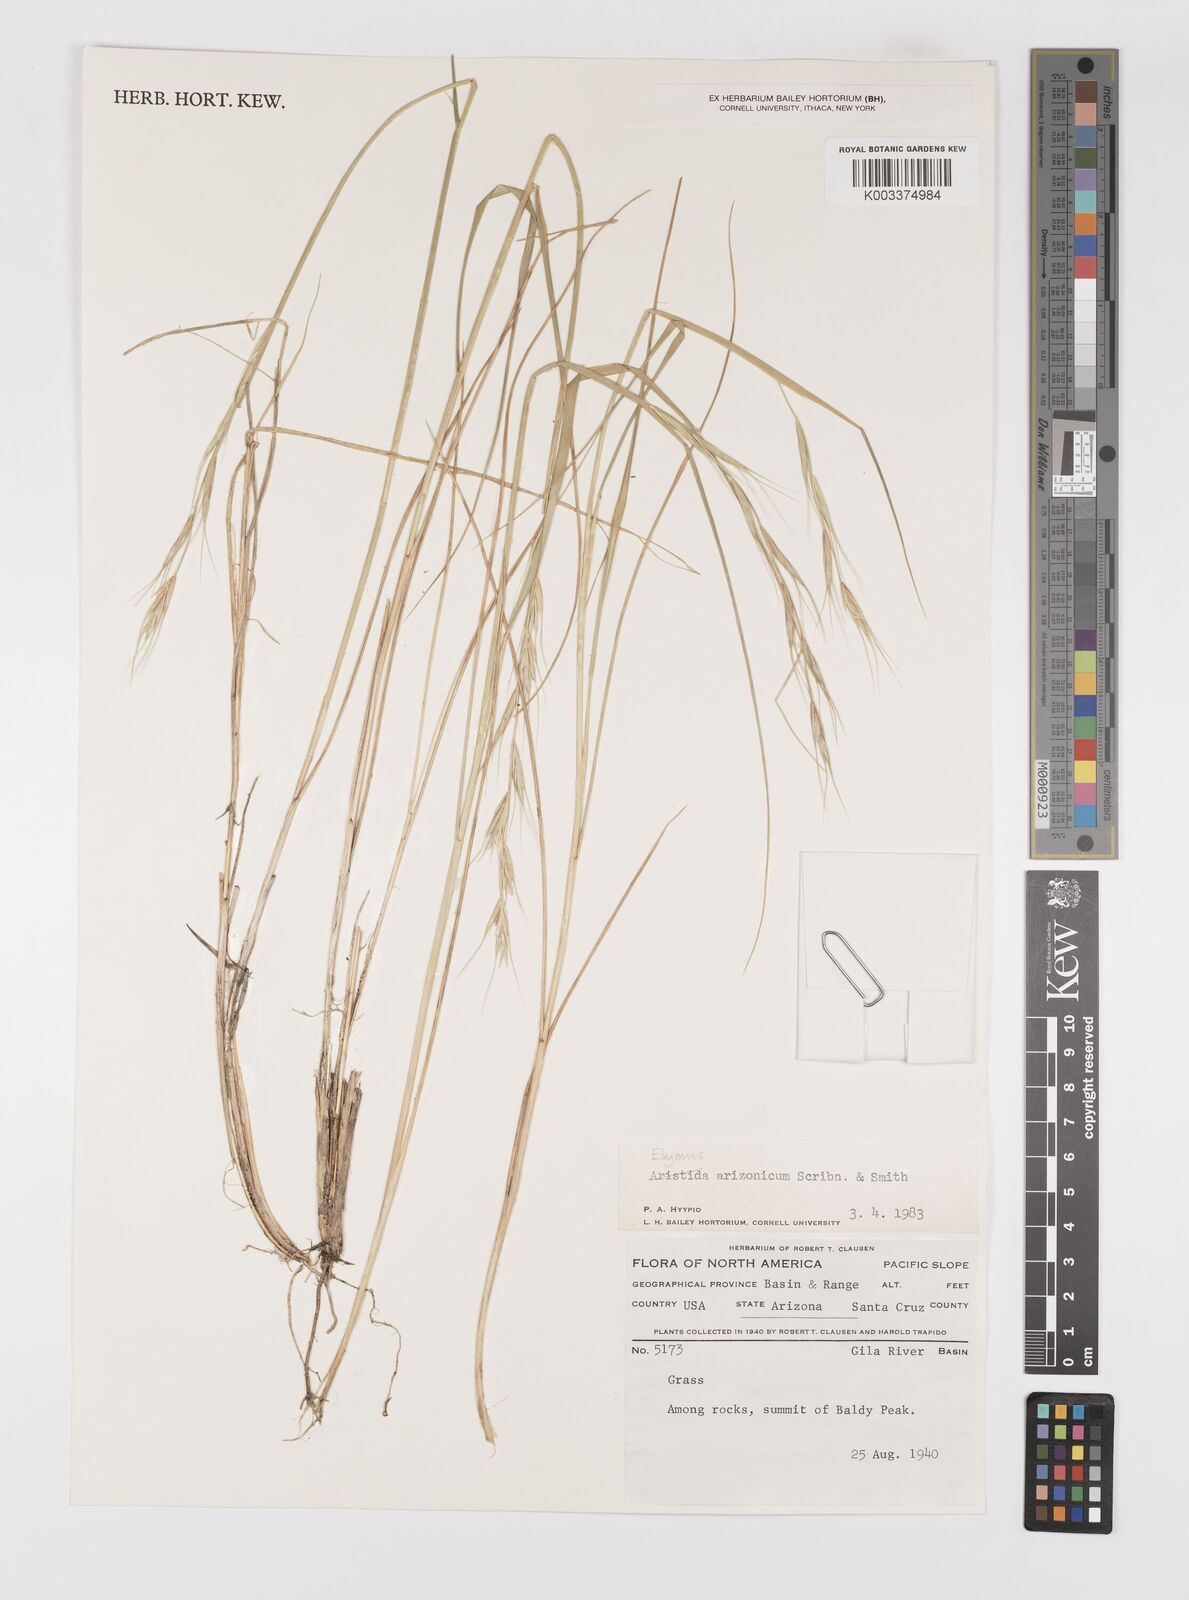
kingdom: Plantae
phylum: Tracheophyta
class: Liliopsida
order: Poales
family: Poaceae
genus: Elymus
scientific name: Elymus arizonicus
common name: Arizona wheatgrass
